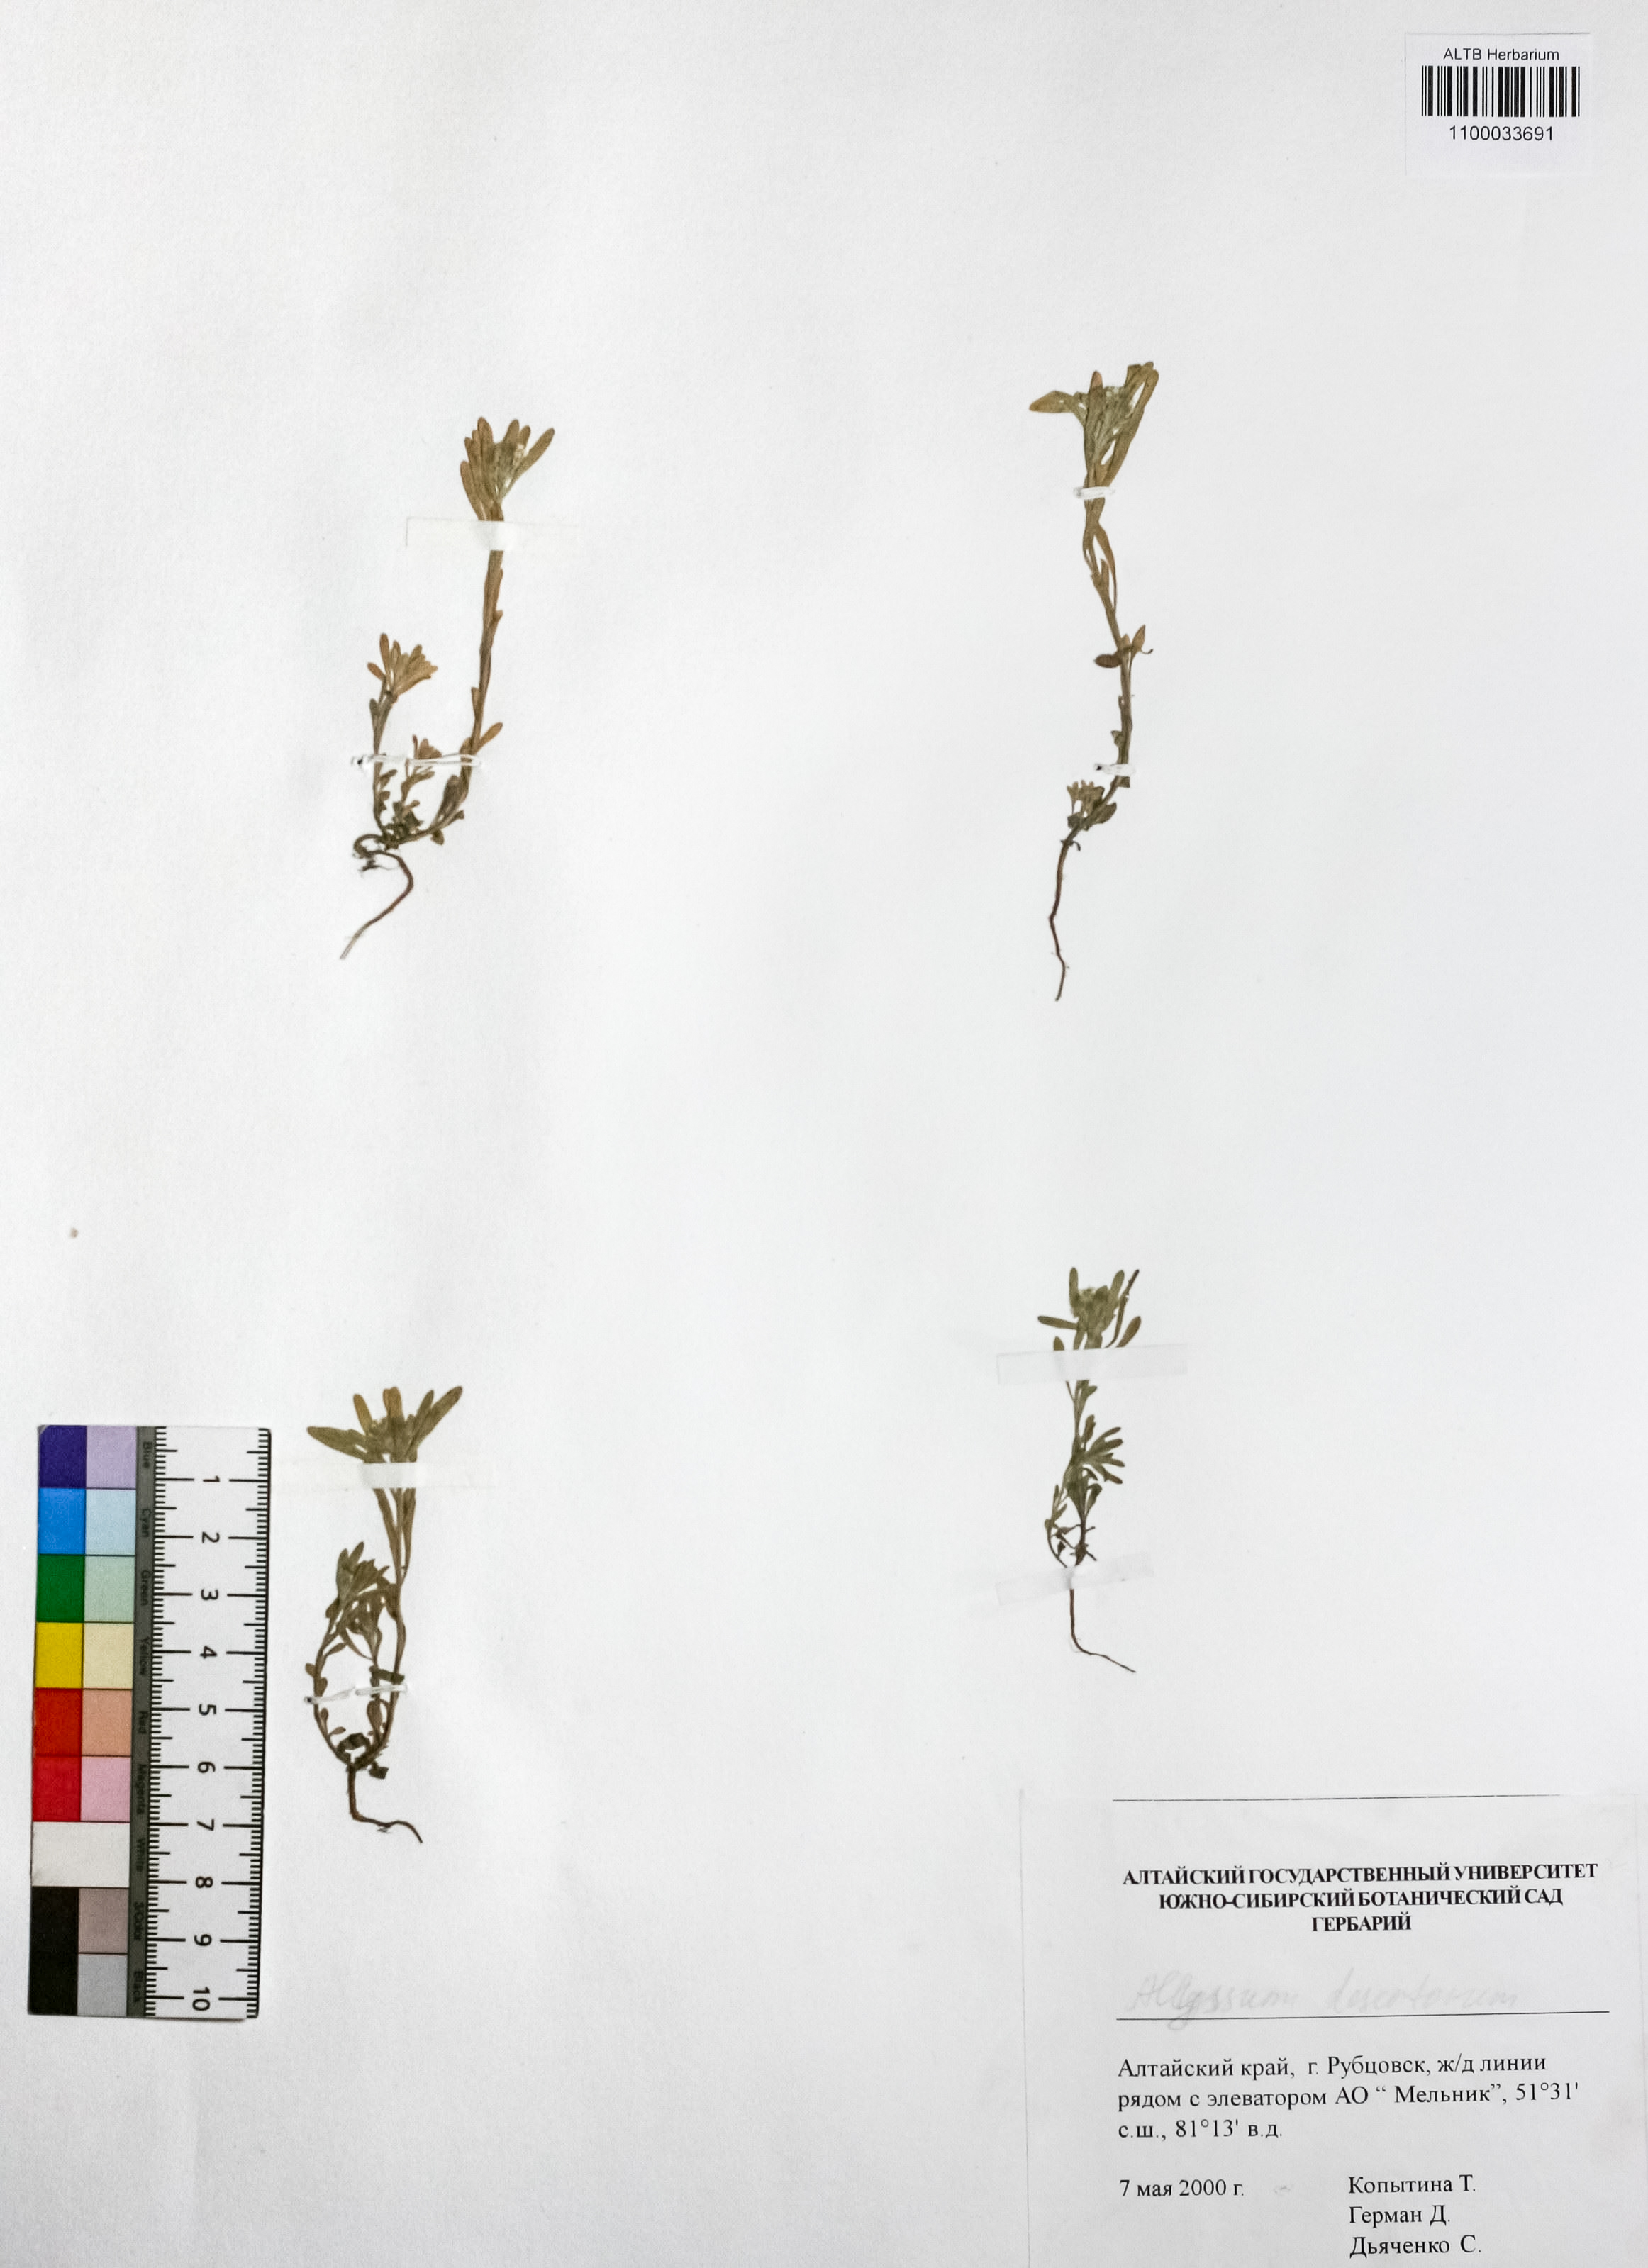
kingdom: Plantae
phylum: Tracheophyta
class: Magnoliopsida
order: Brassicales
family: Brassicaceae
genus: Alyssum
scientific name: Alyssum turkestanicum
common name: Desert alyssum
